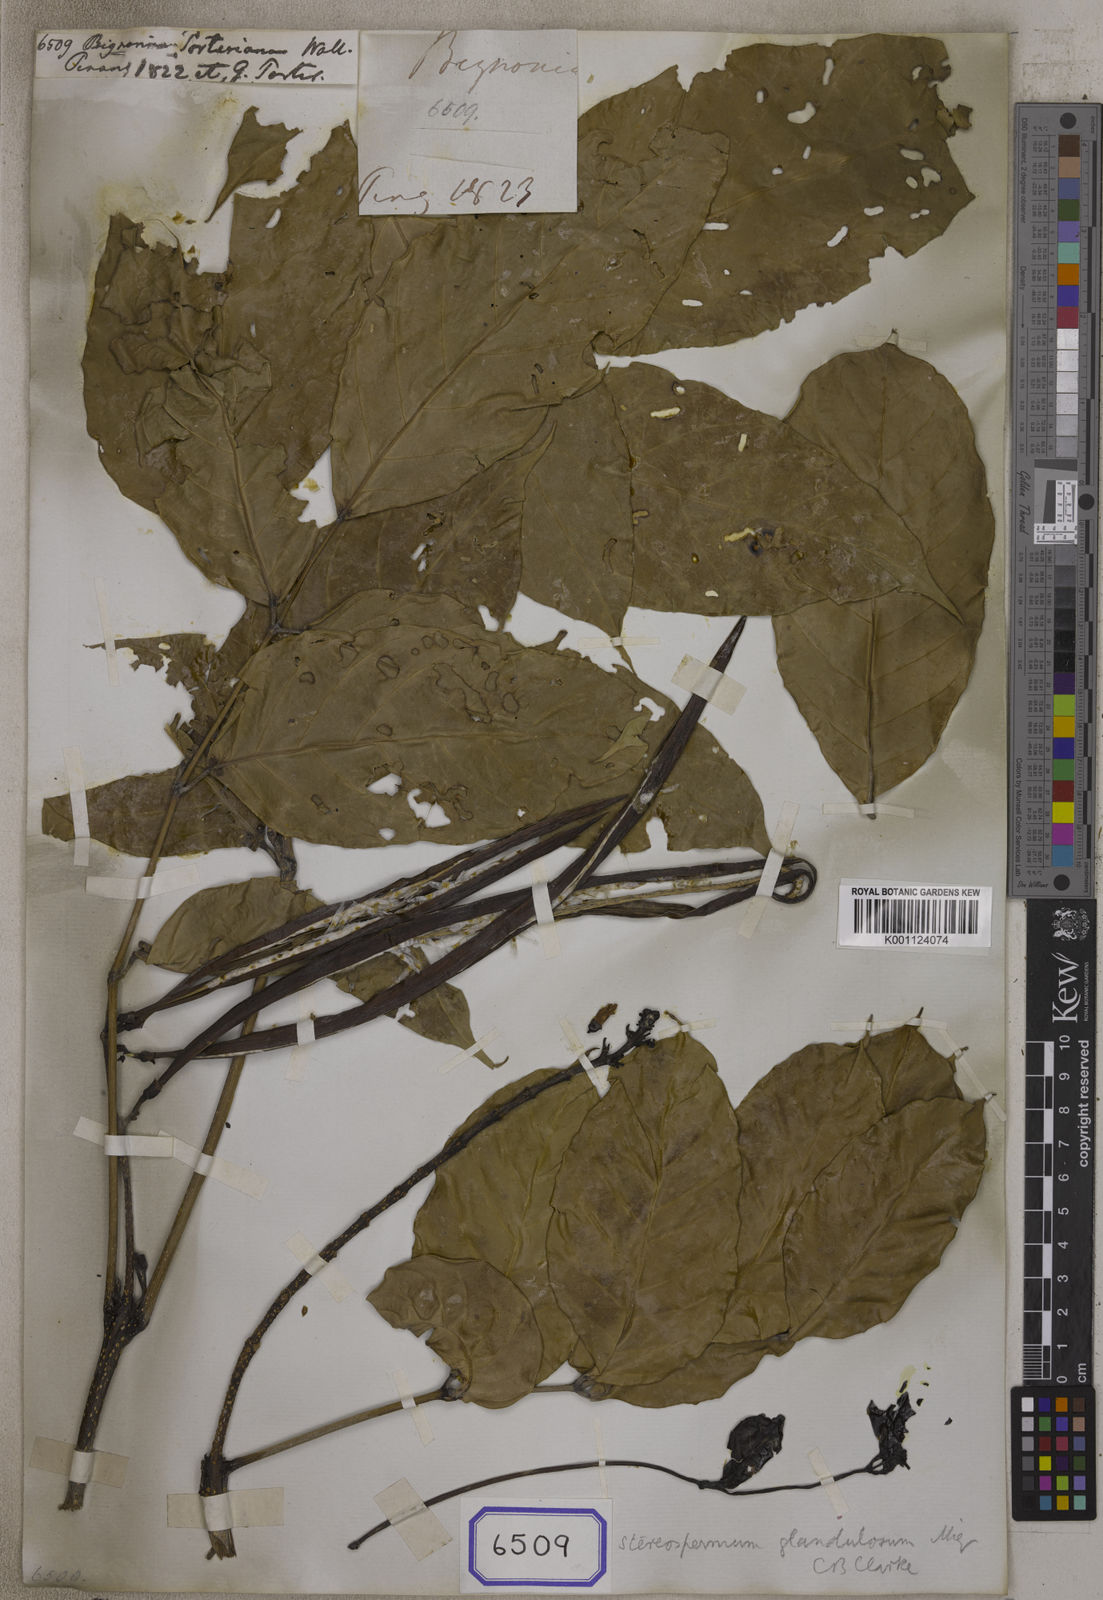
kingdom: Plantae
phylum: Tracheophyta
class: Magnoliopsida
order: Lamiales
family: Bignoniaceae
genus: Bignonia
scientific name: Bignonia
